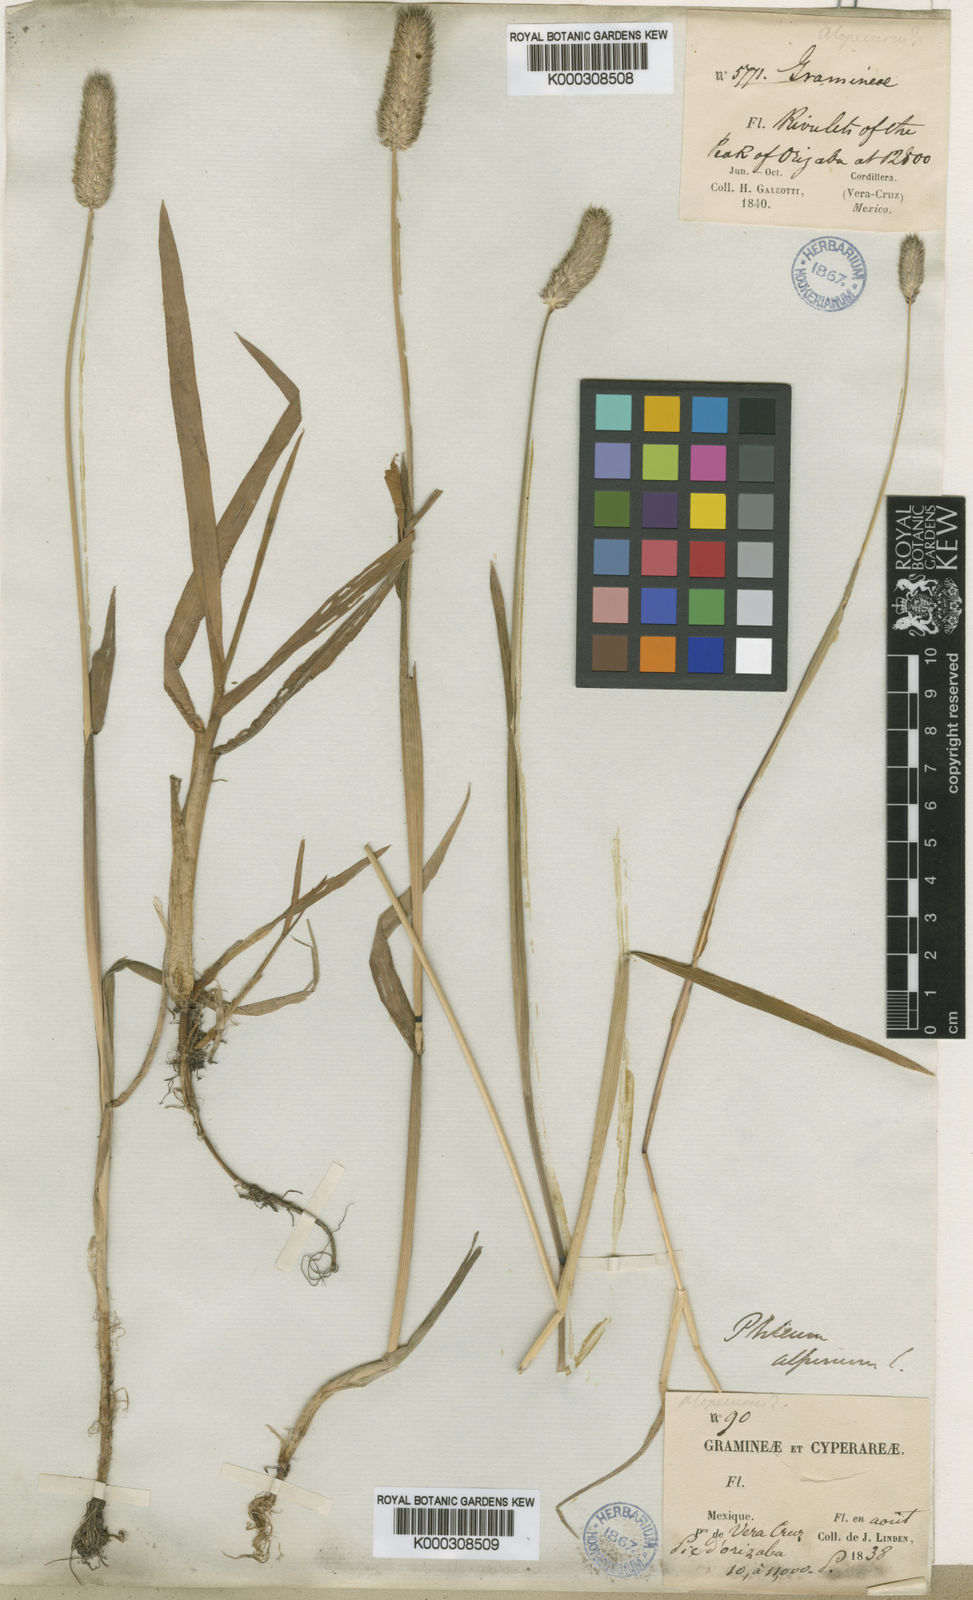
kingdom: Plantae
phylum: Tracheophyta
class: Liliopsida
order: Poales
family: Poaceae
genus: Phleum
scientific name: Phleum alpinum
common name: Alpine cat's-tail
